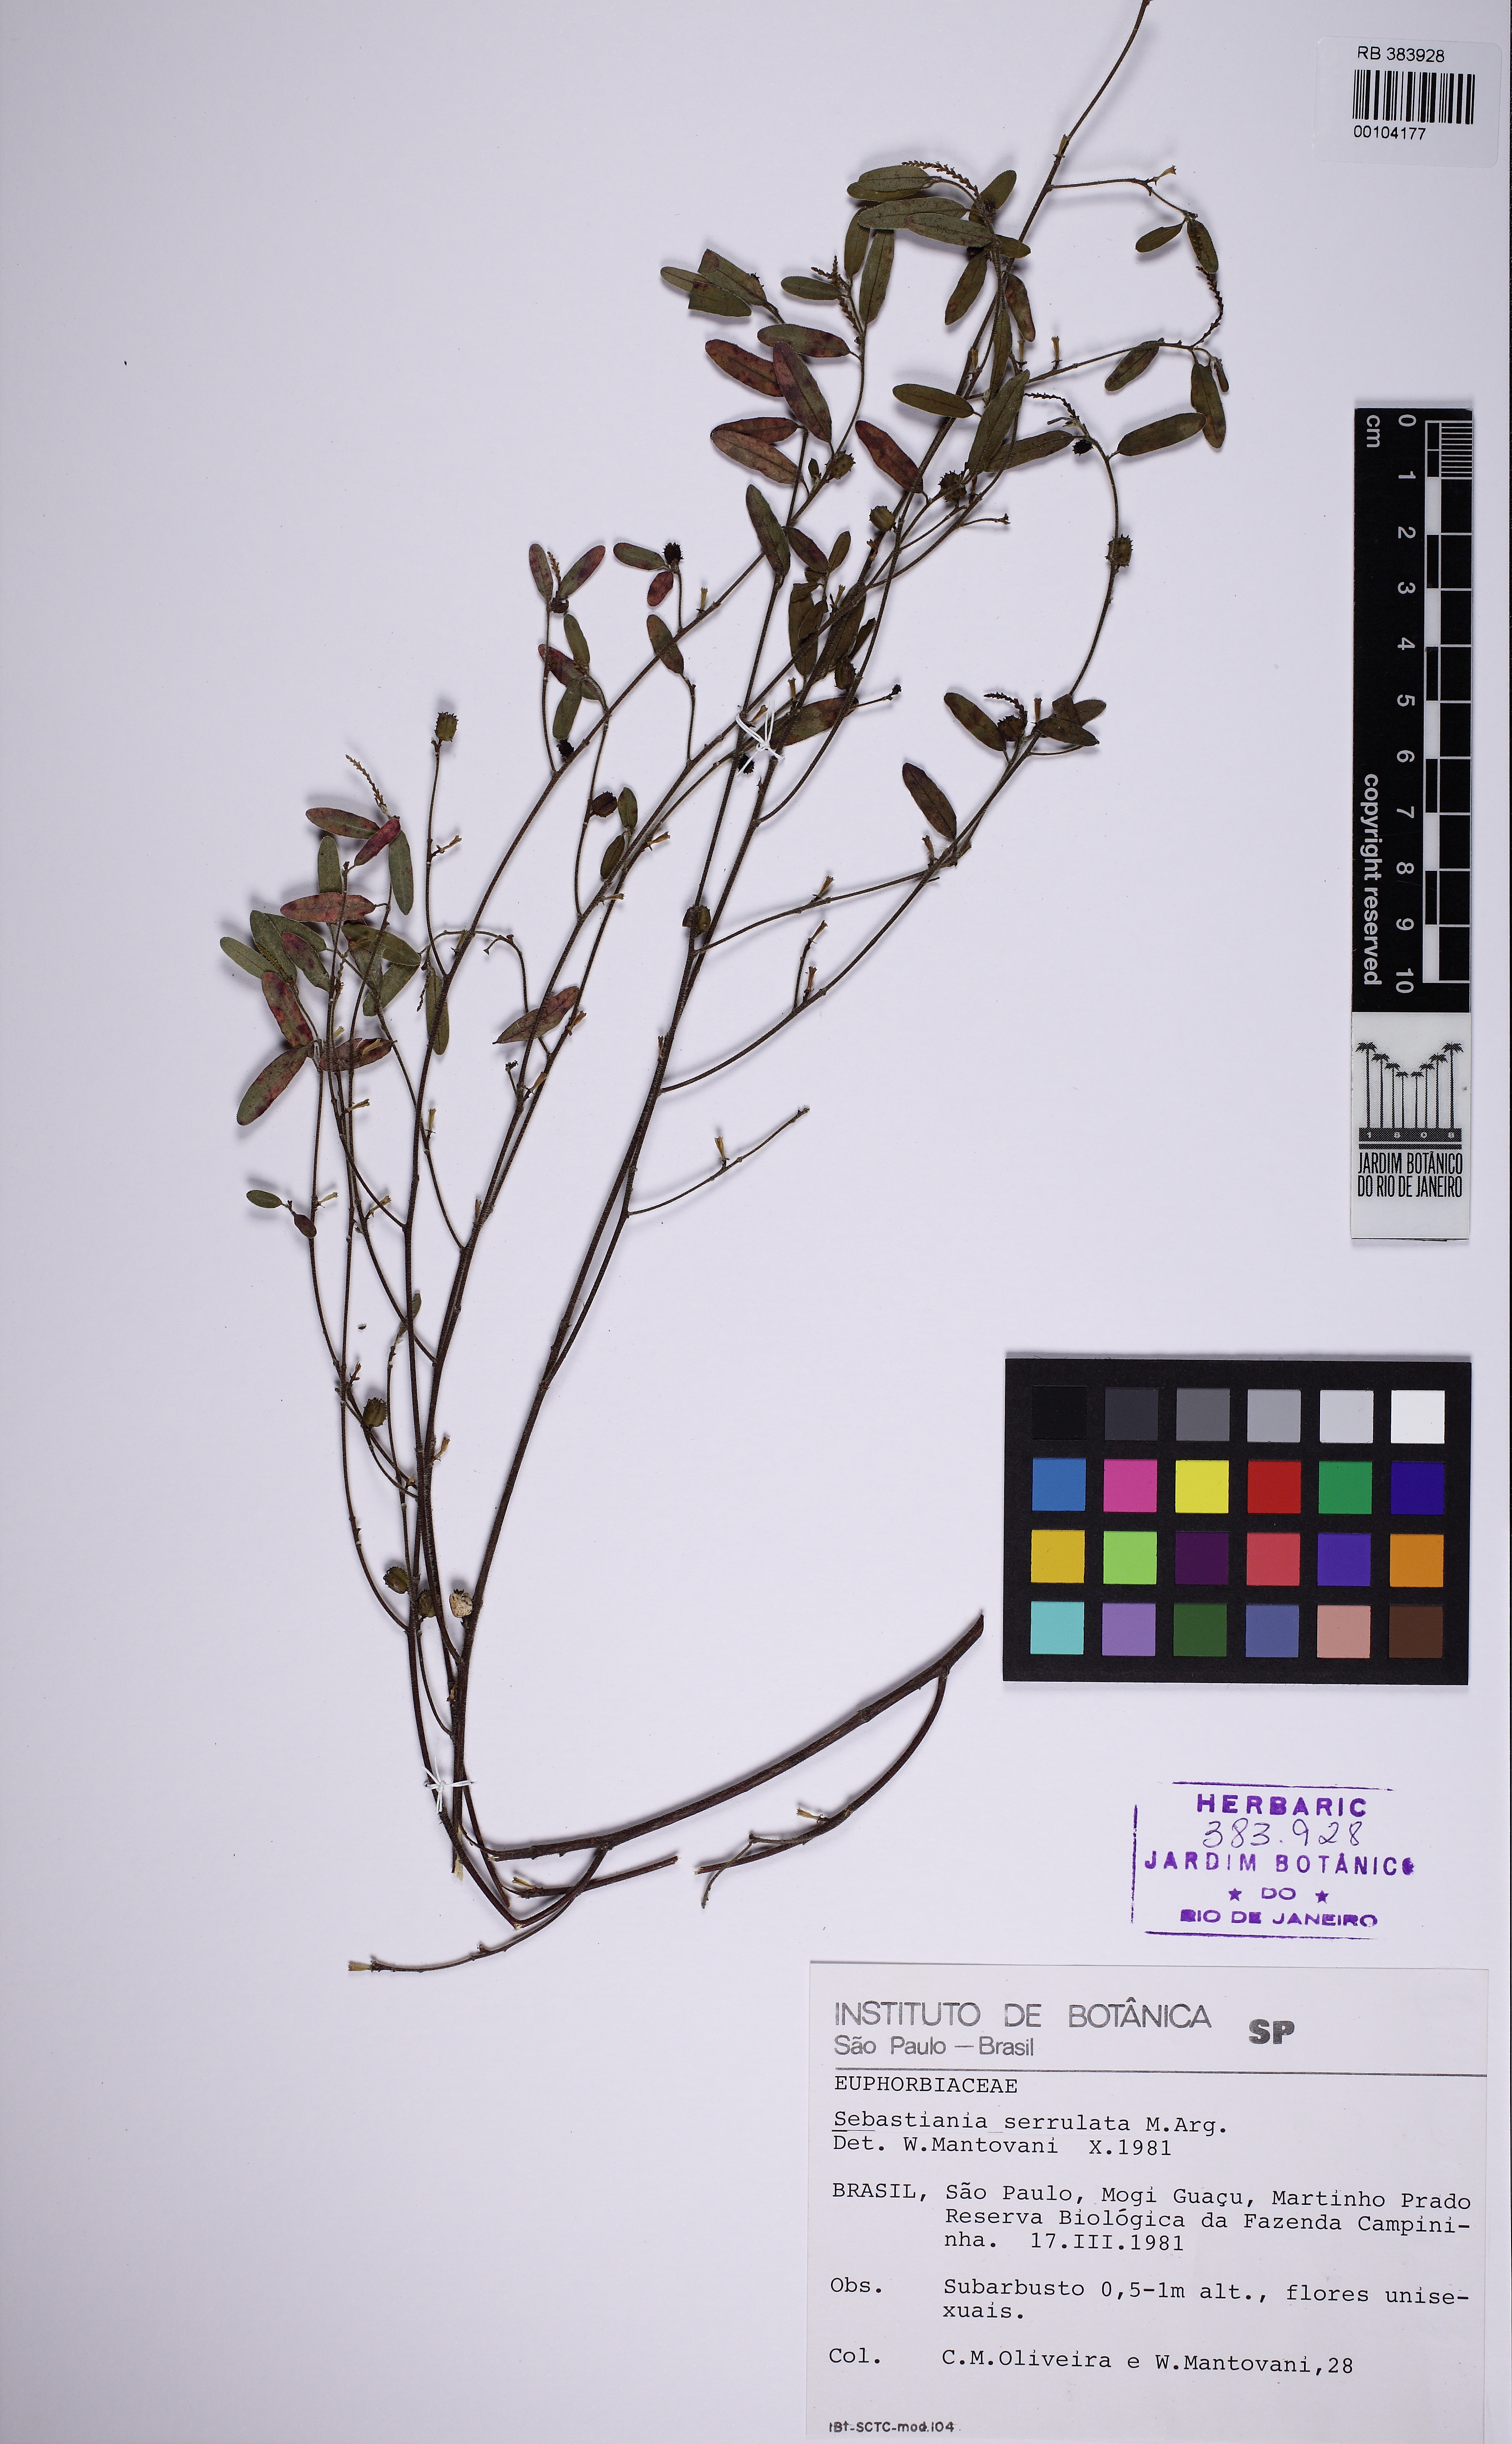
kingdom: Plantae
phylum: Tracheophyta
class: Magnoliopsida
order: Malpighiales
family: Euphorbiaceae
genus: Microstachys
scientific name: Microstachys serrulata
